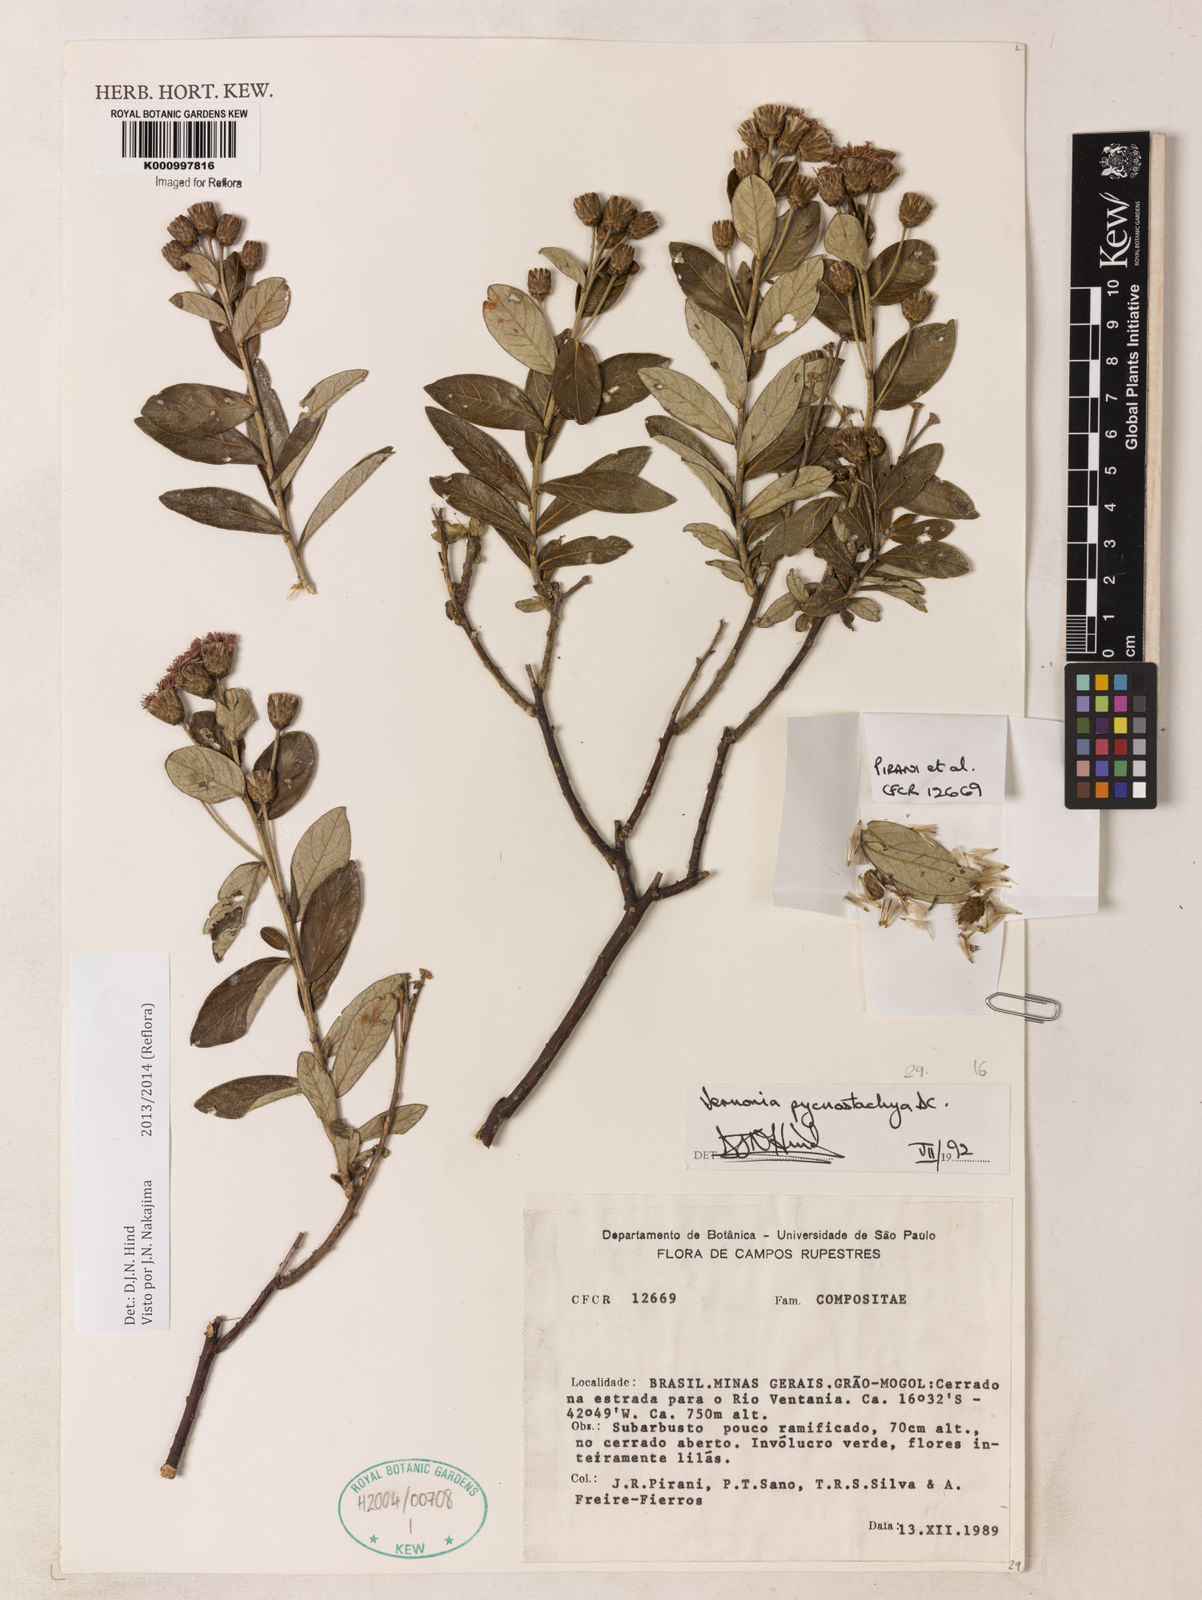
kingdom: Plantae
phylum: Tracheophyta
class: Magnoliopsida
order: Asterales
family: Asteraceae
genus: Lessingianthus
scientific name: Lessingianthus pycnostachyus
